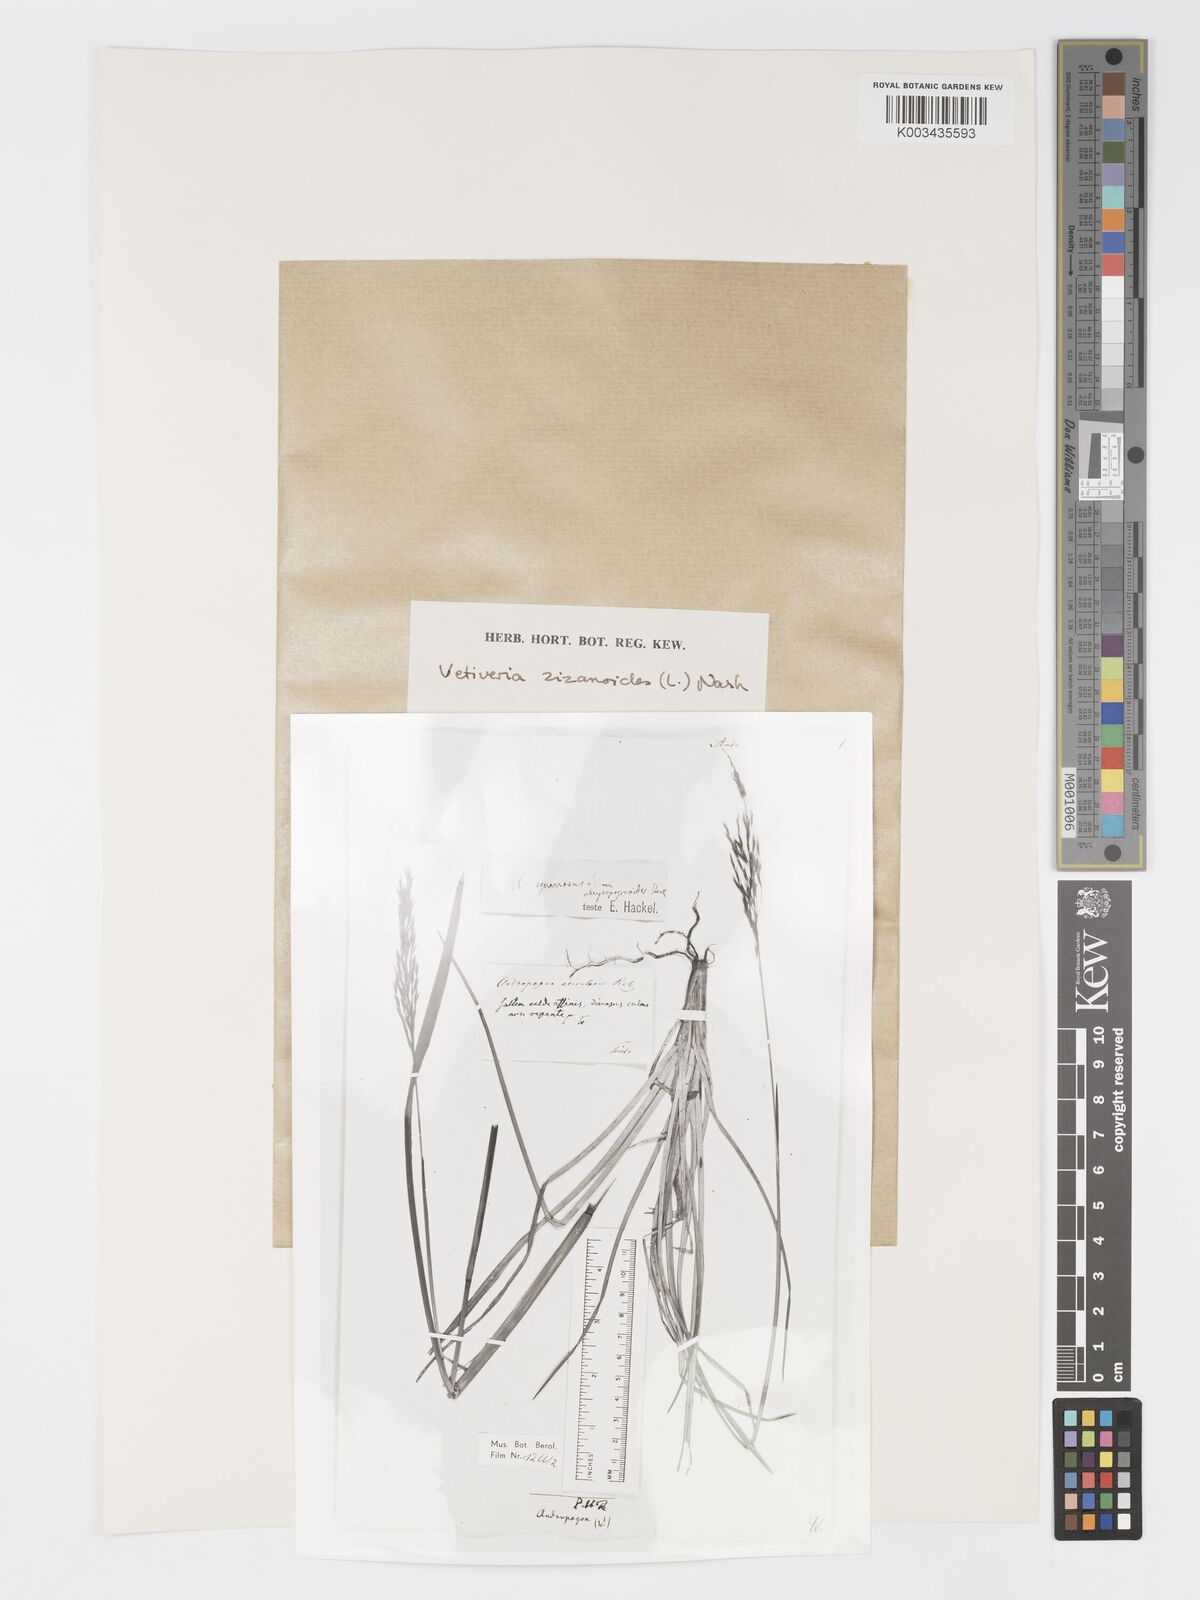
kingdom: Plantae
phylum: Tracheophyta
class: Liliopsida
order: Poales
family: Poaceae
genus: Chrysopogon
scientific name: Chrysopogon zizanioides
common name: False beardgrass
